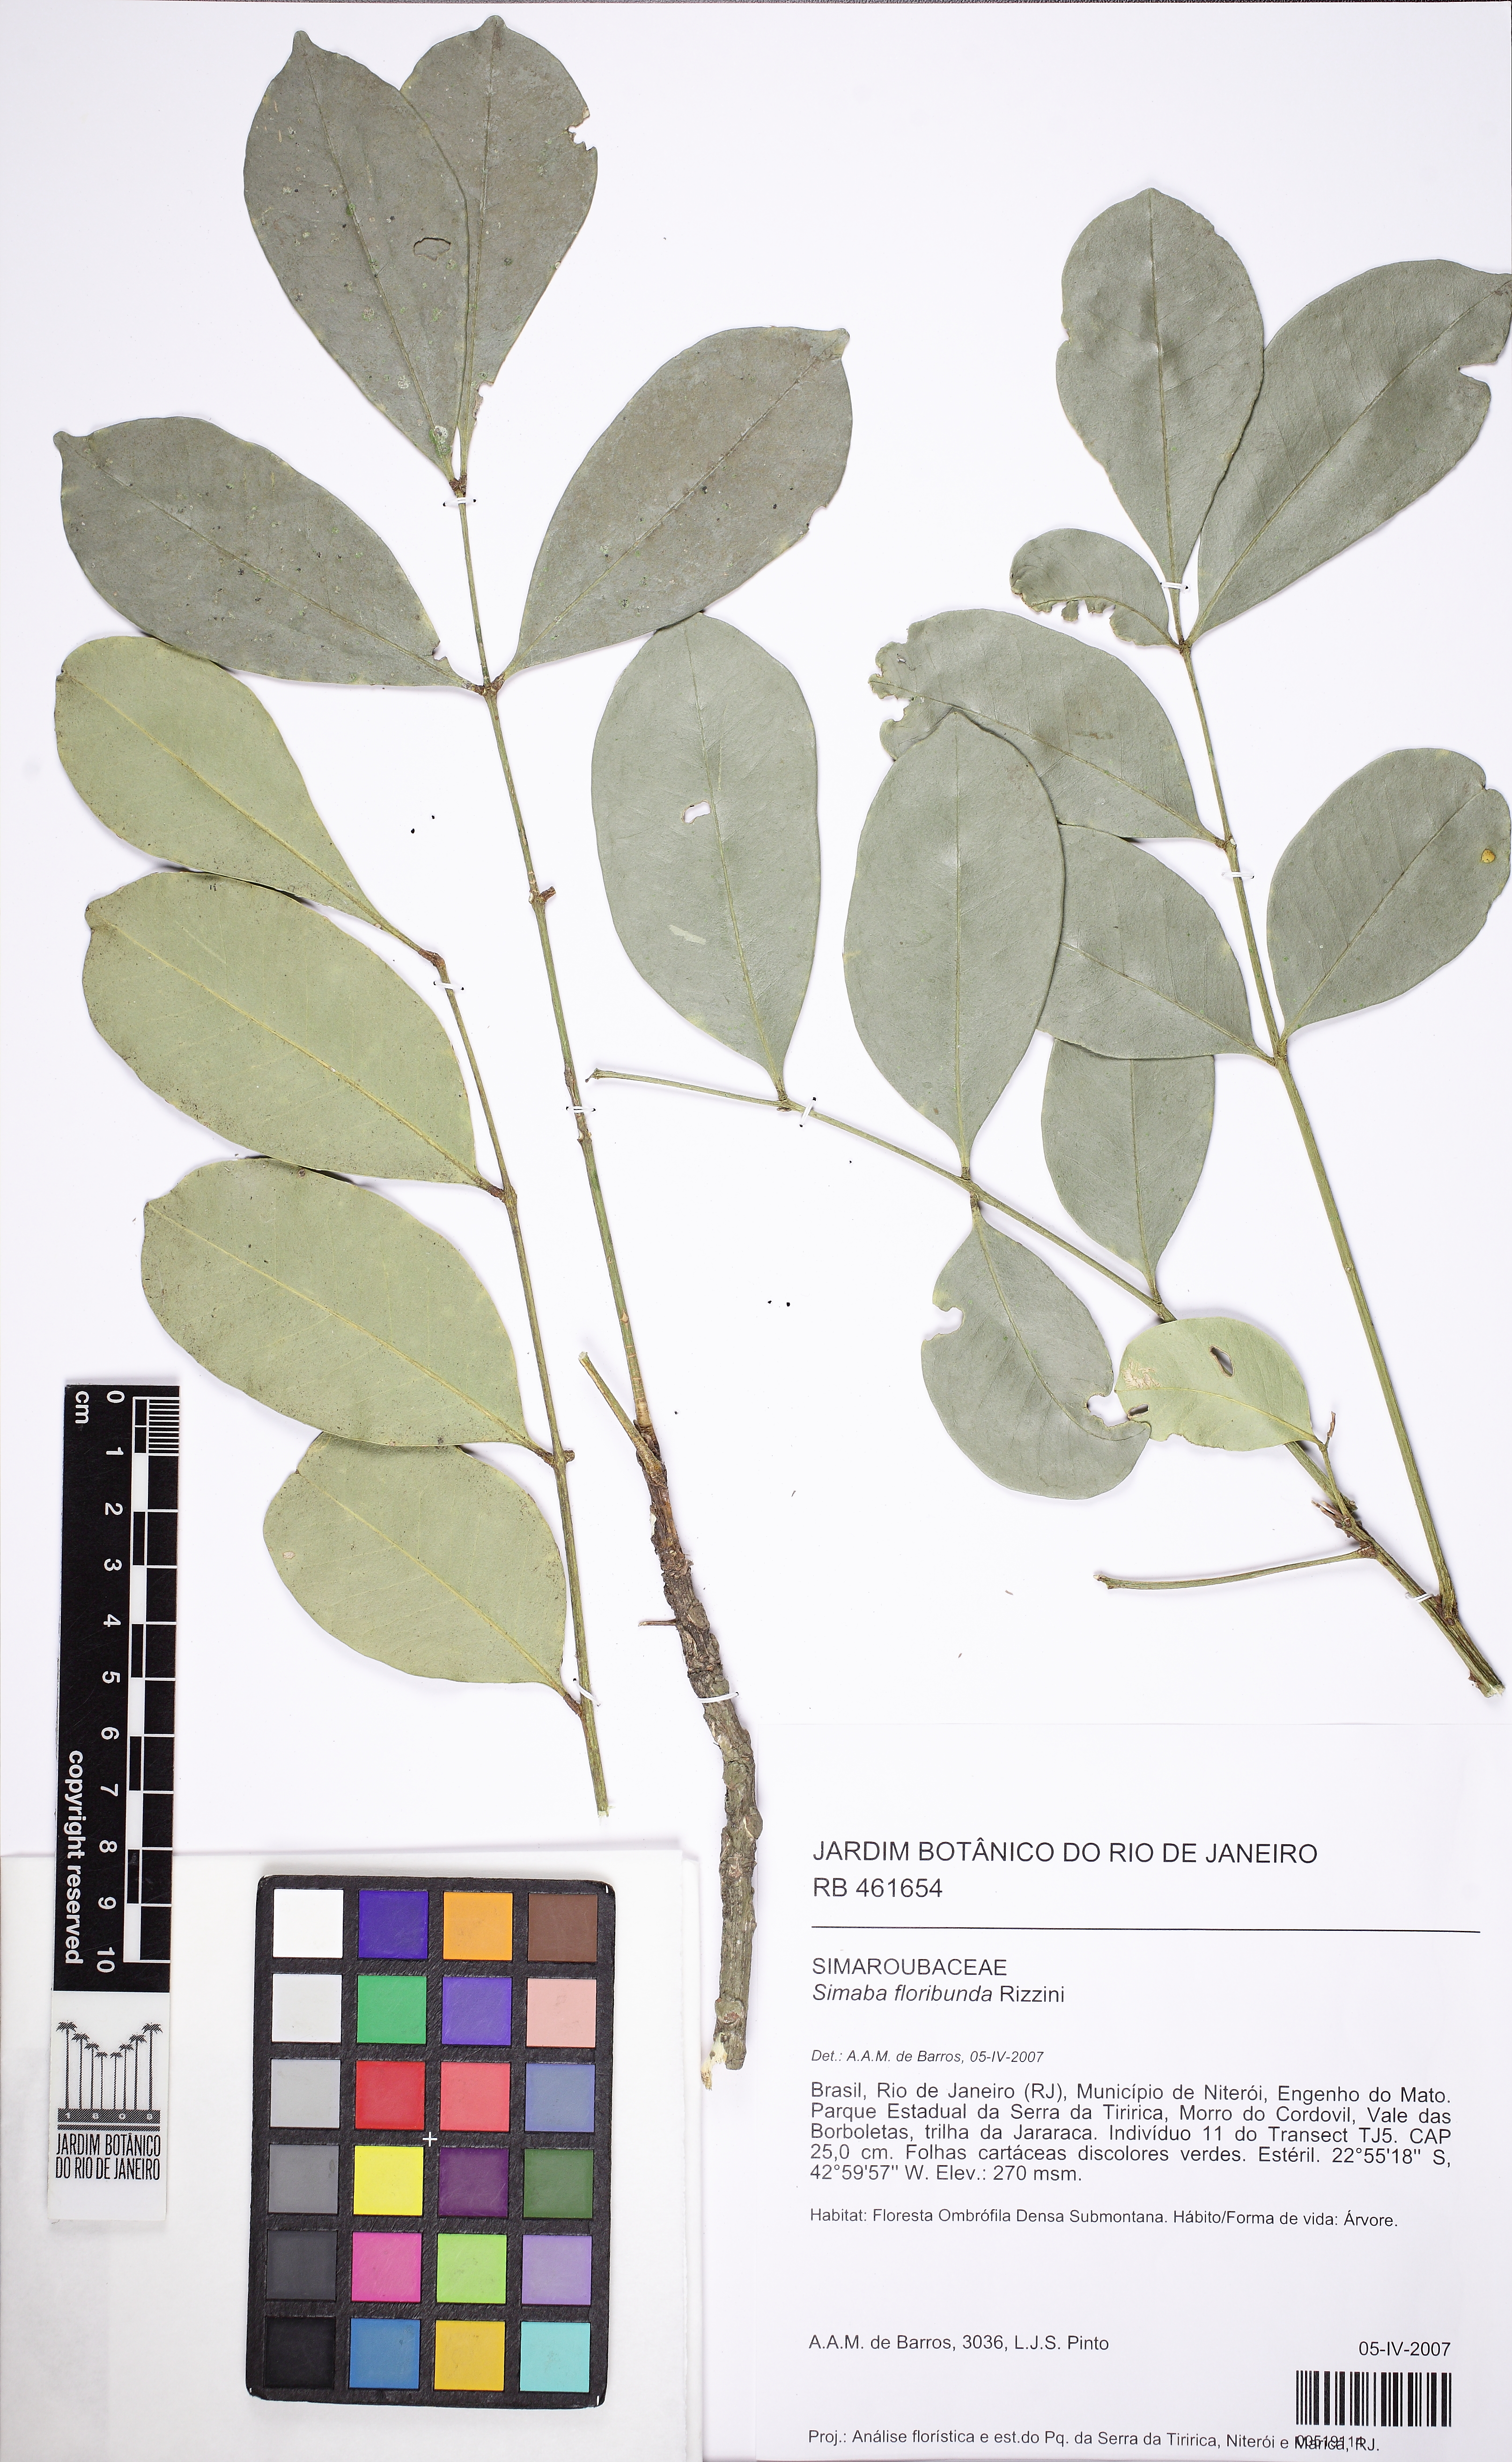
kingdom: Plantae
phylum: Tracheophyta
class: Magnoliopsida
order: Sapindales
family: Simaroubaceae
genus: Homalolepis
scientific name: Homalolepis cuneata
